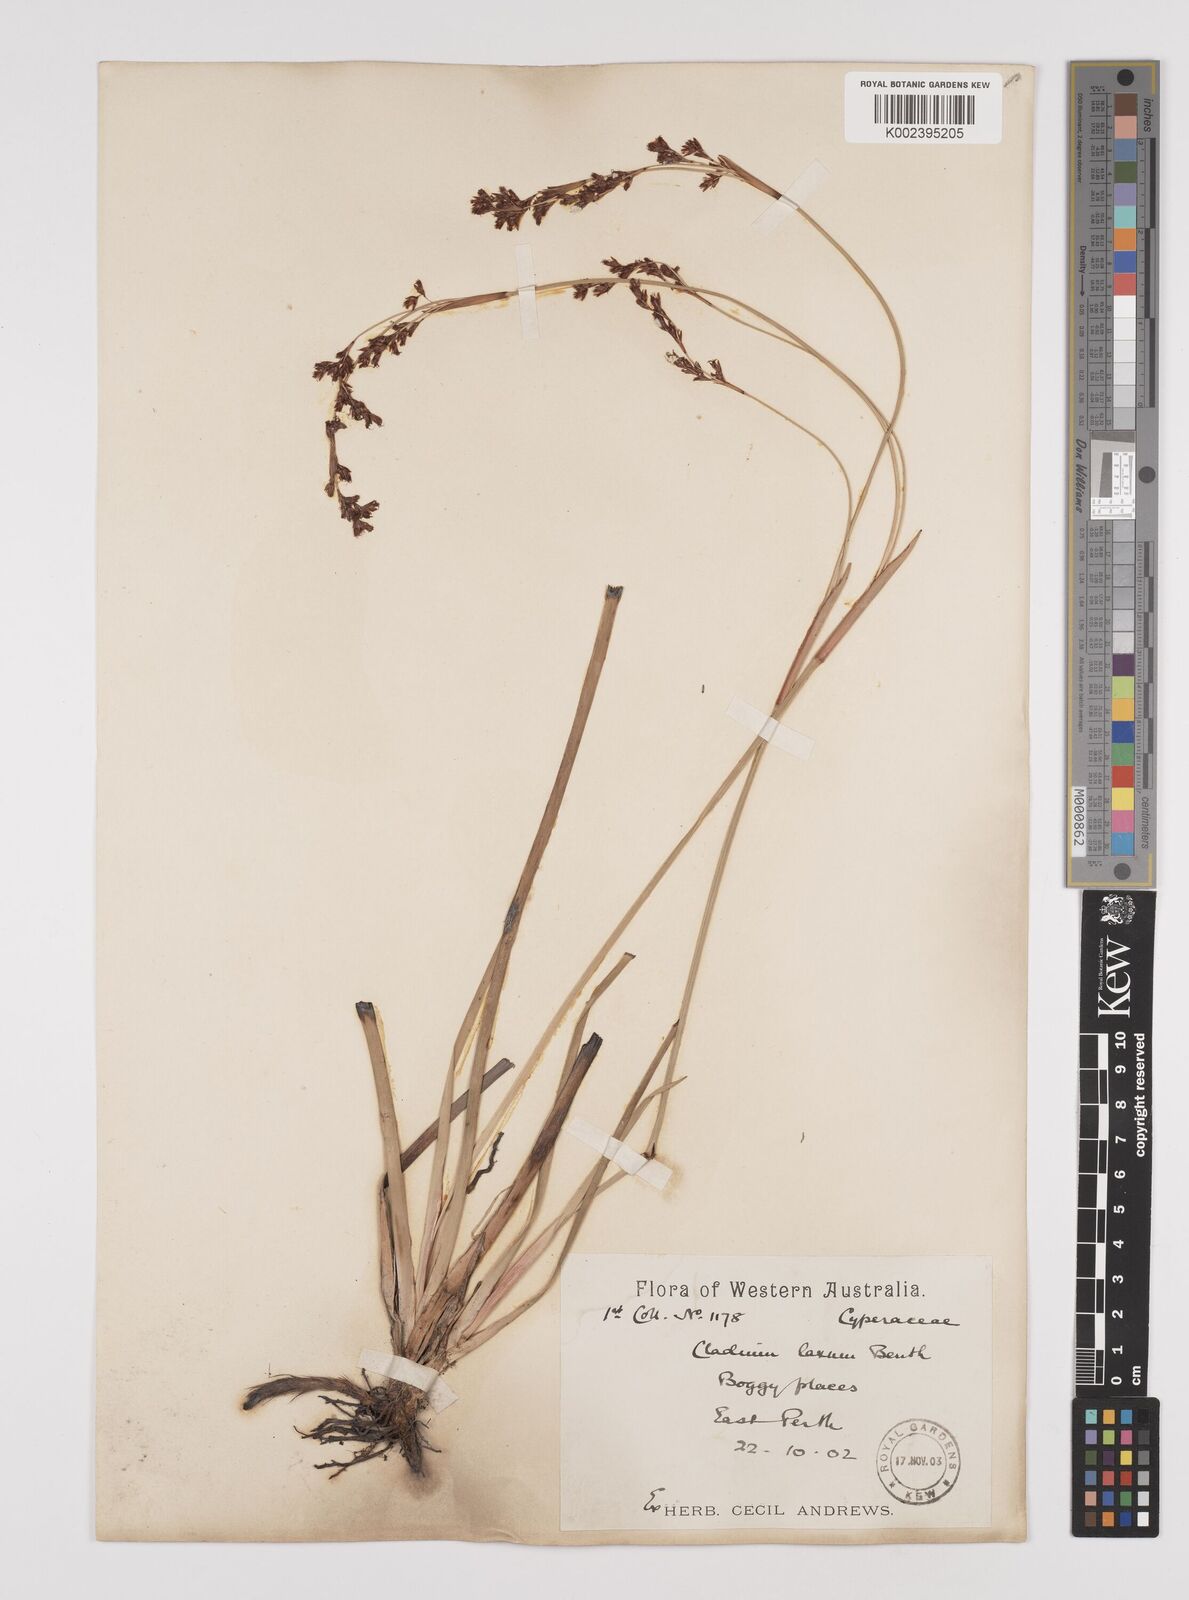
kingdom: Plantae
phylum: Tracheophyta
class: Liliopsida
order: Poales
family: Cyperaceae
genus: Machaerina
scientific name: Machaerina laxa
